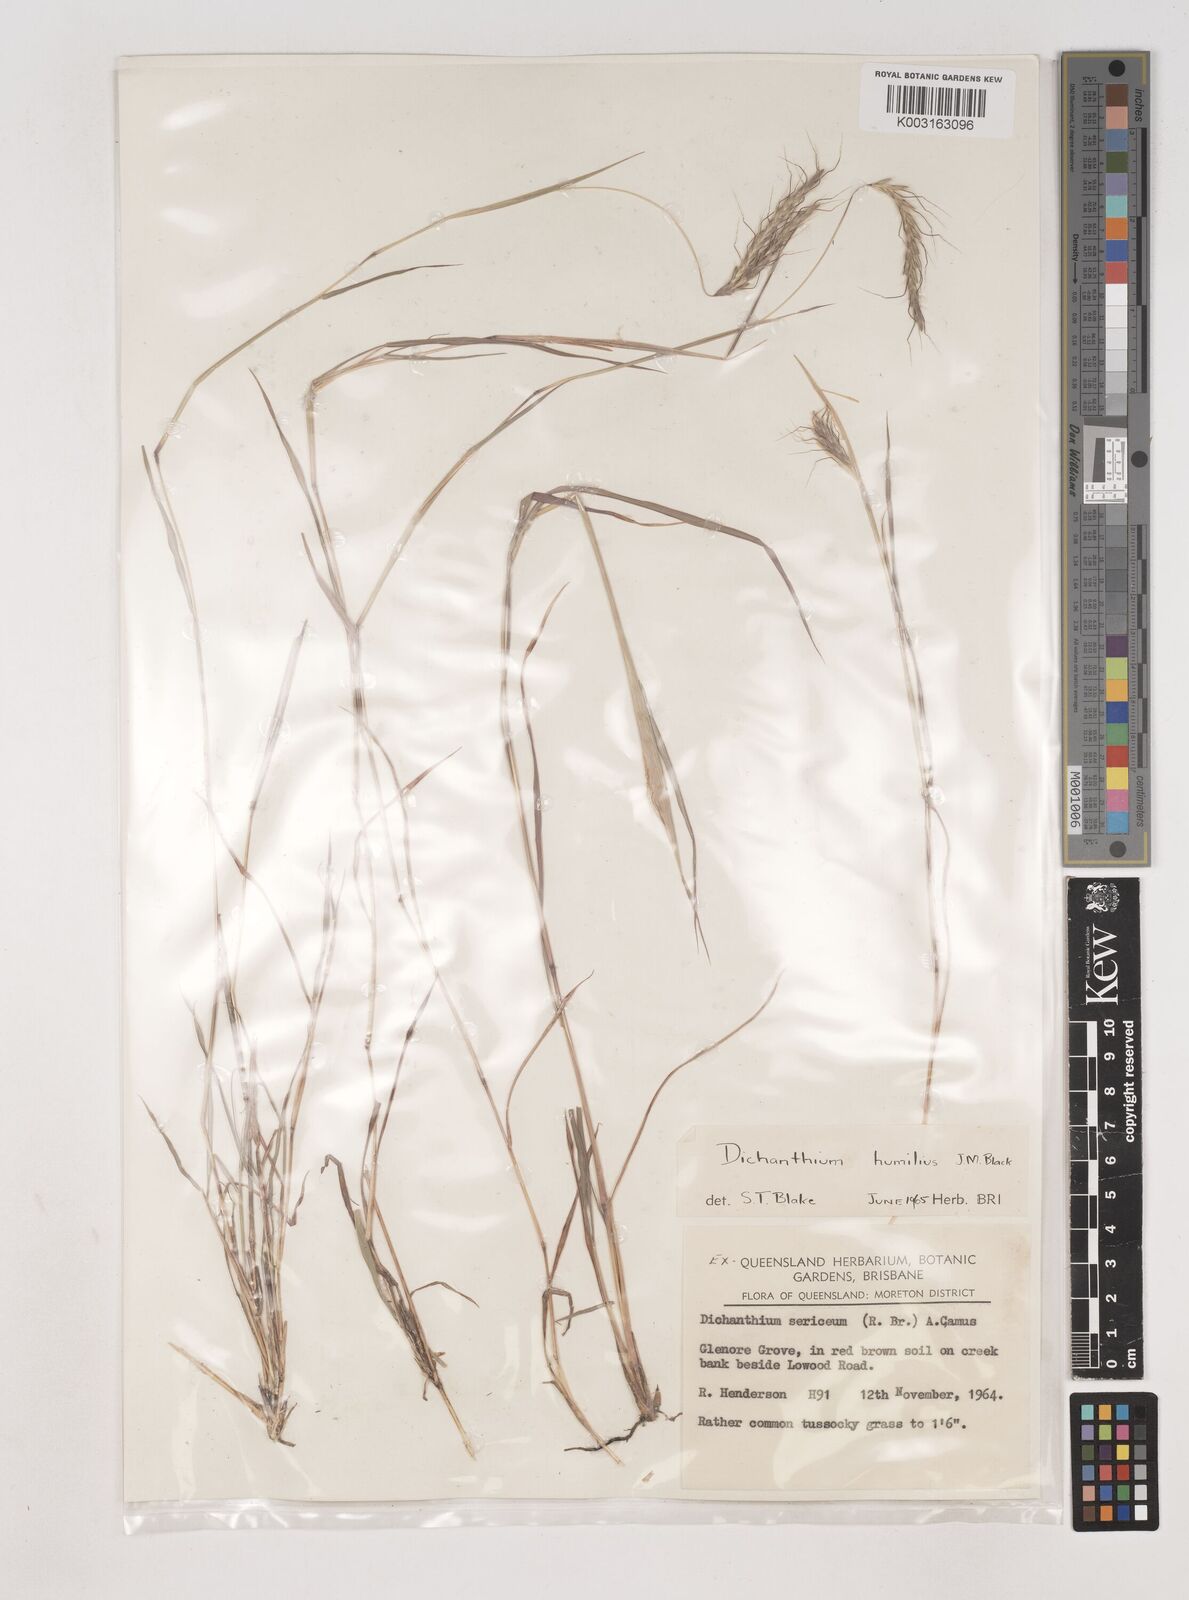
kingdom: Plantae
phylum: Tracheophyta
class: Liliopsida
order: Poales
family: Poaceae
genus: Dichanthium
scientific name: Dichanthium sericeum
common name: Silky bluestem
